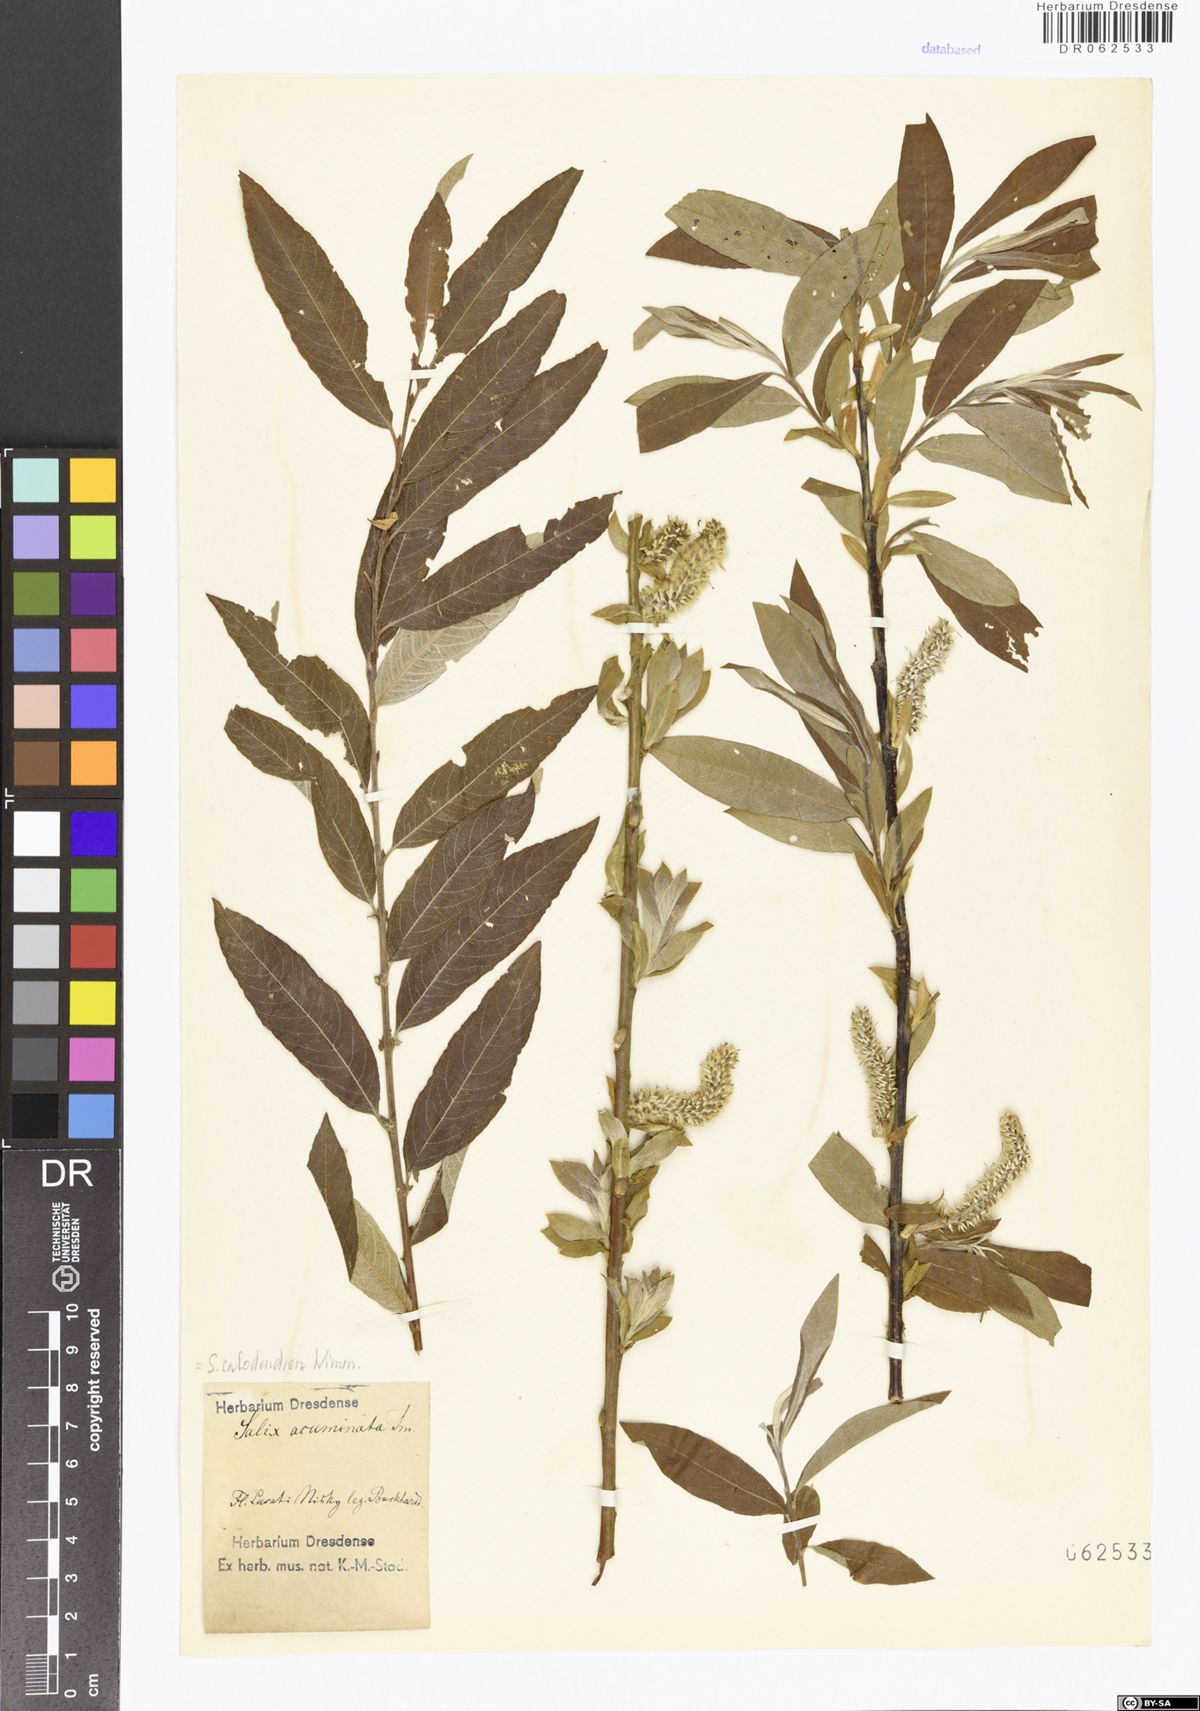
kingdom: Plantae
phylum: Tracheophyta
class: Magnoliopsida
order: Malpighiales
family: Salicaceae
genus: Salix
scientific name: Salix calodendron
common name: Holme willow
